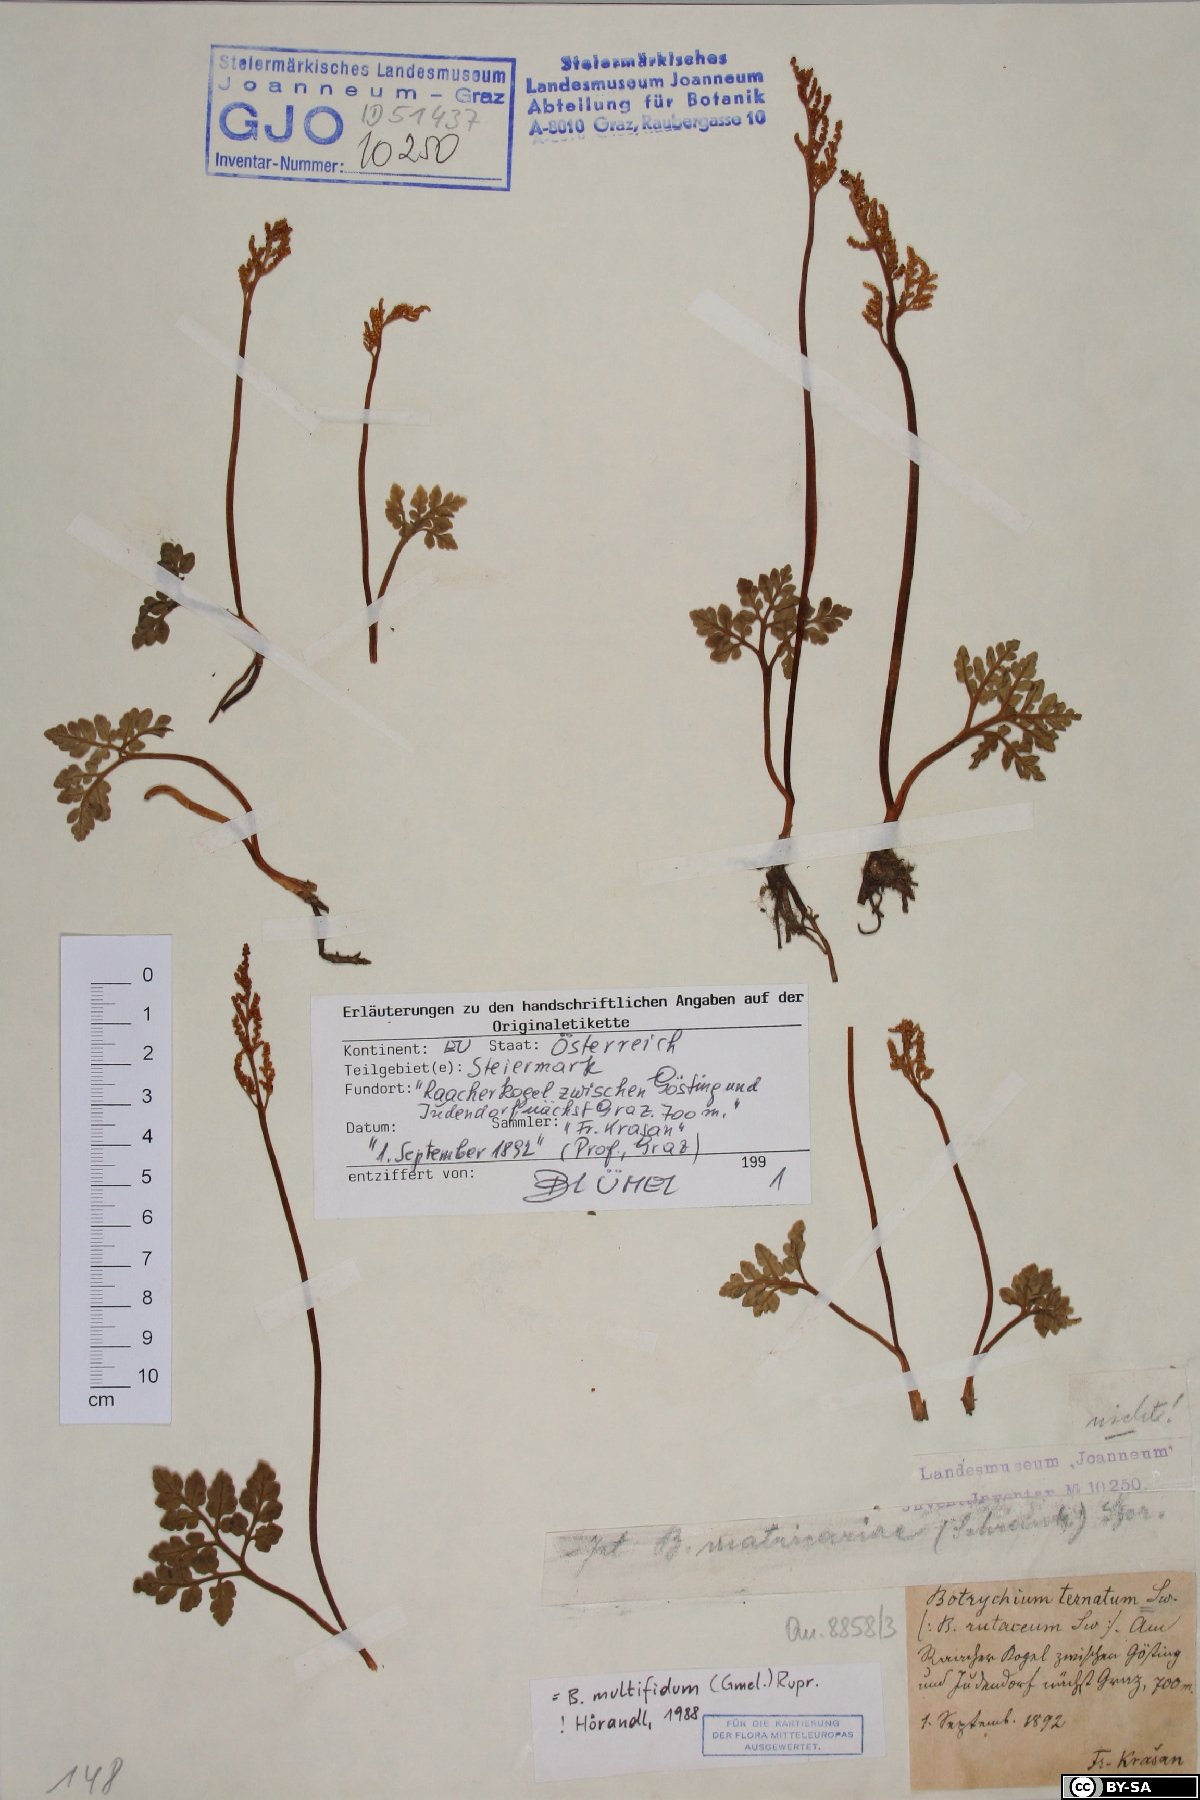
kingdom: Plantae
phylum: Tracheophyta
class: Polypodiopsida
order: Ophioglossales
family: Ophioglossaceae
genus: Sceptridium
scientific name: Sceptridium multifidum
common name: Leathery grape fern
